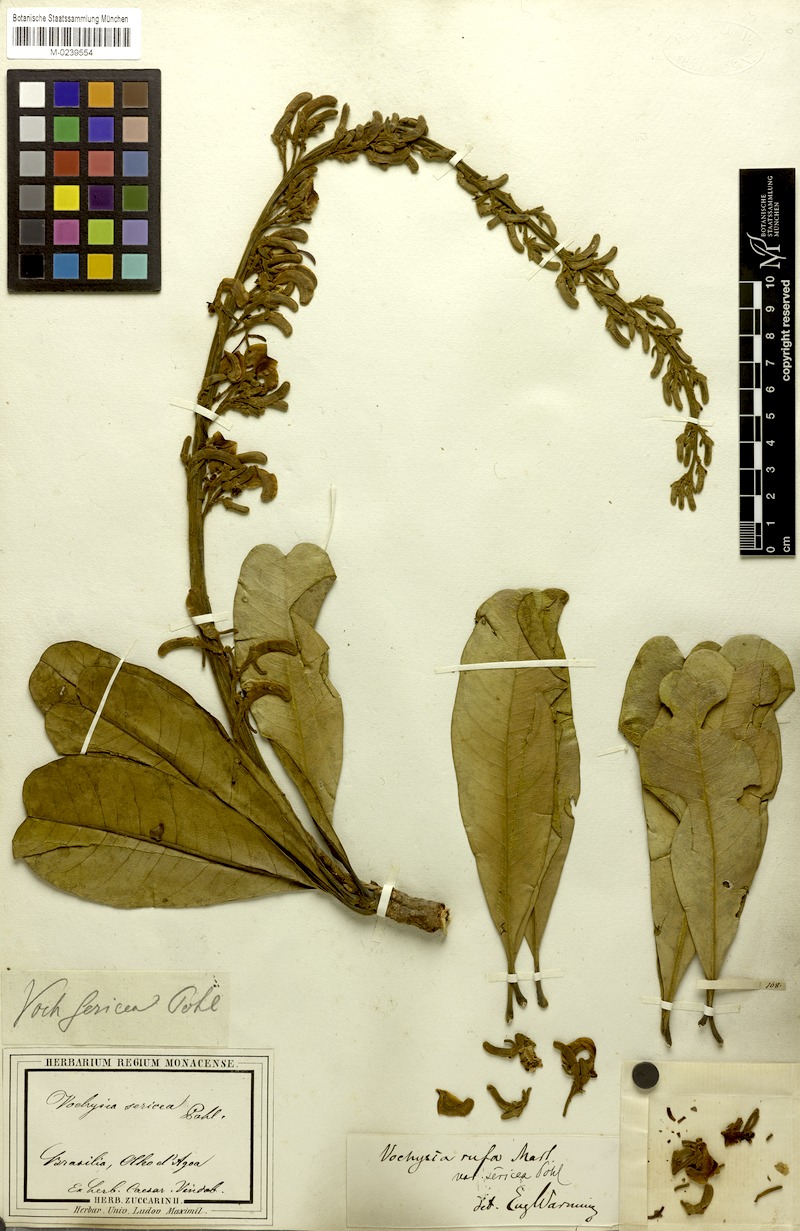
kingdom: Plantae
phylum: Tracheophyta
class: Magnoliopsida
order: Myrtales
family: Vochysiaceae
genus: Vochysia
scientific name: Vochysia rufa
